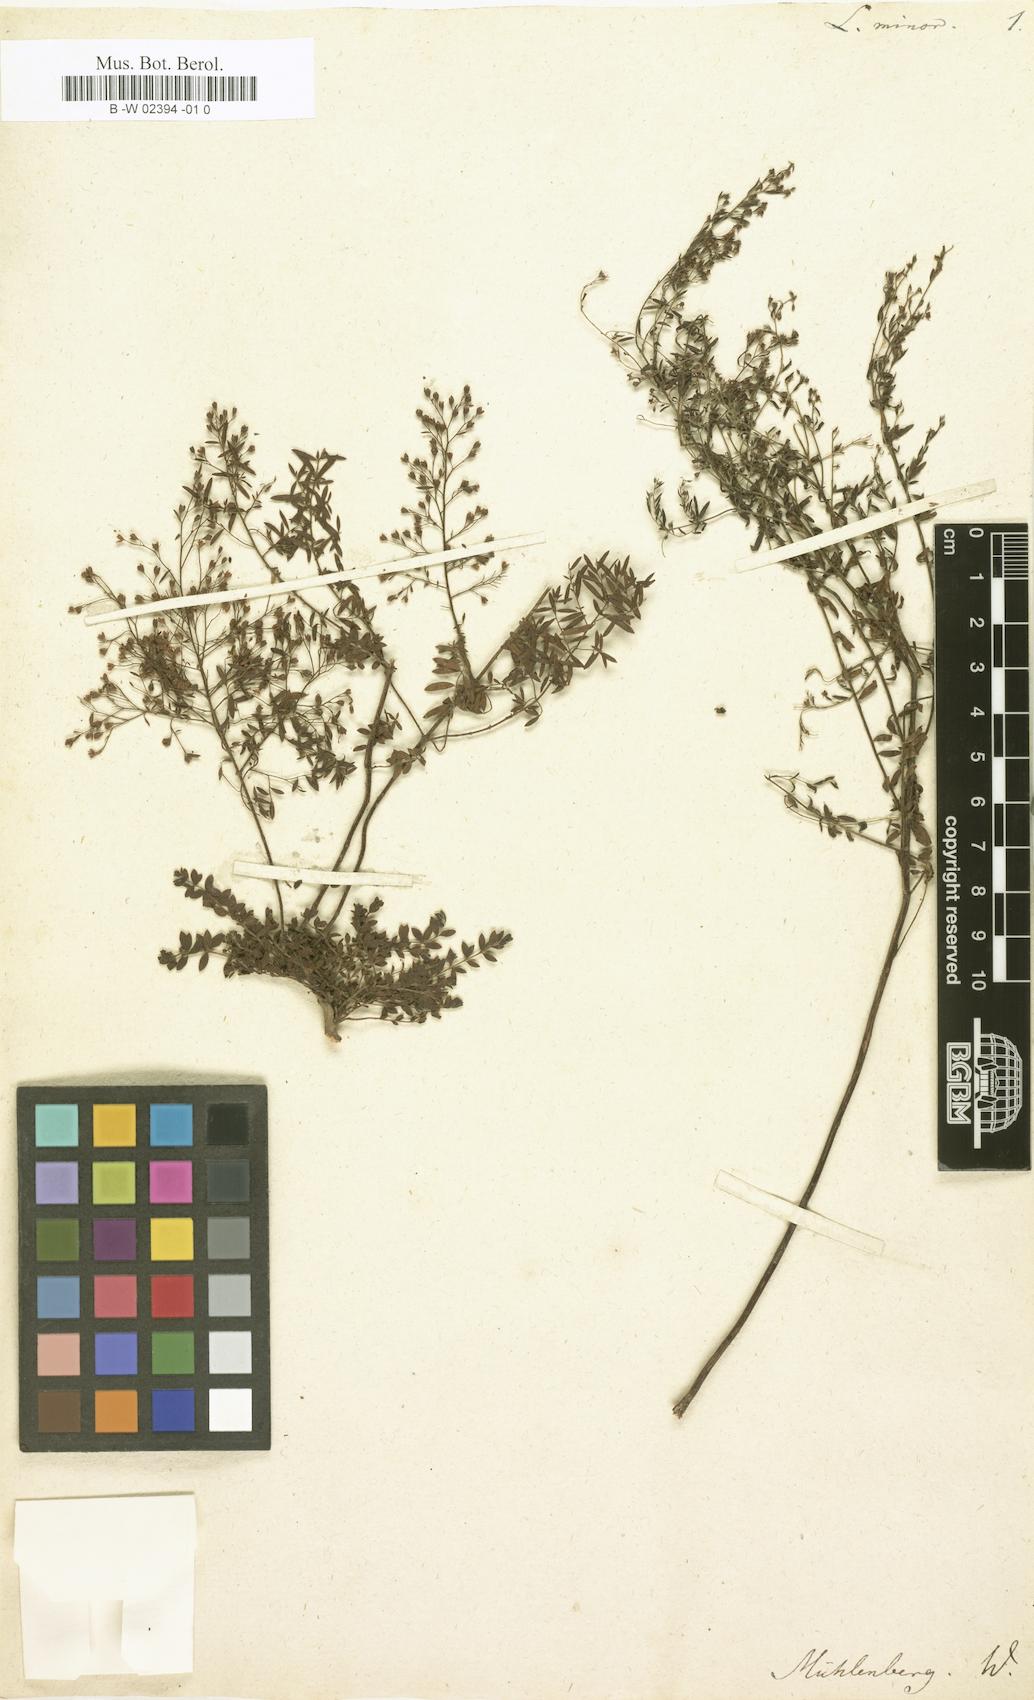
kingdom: Plantae
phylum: Tracheophyta
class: Magnoliopsida
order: Malvales
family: Cistaceae
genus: Lechea
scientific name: Lechea minor
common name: Thyme-leaf pinweed
